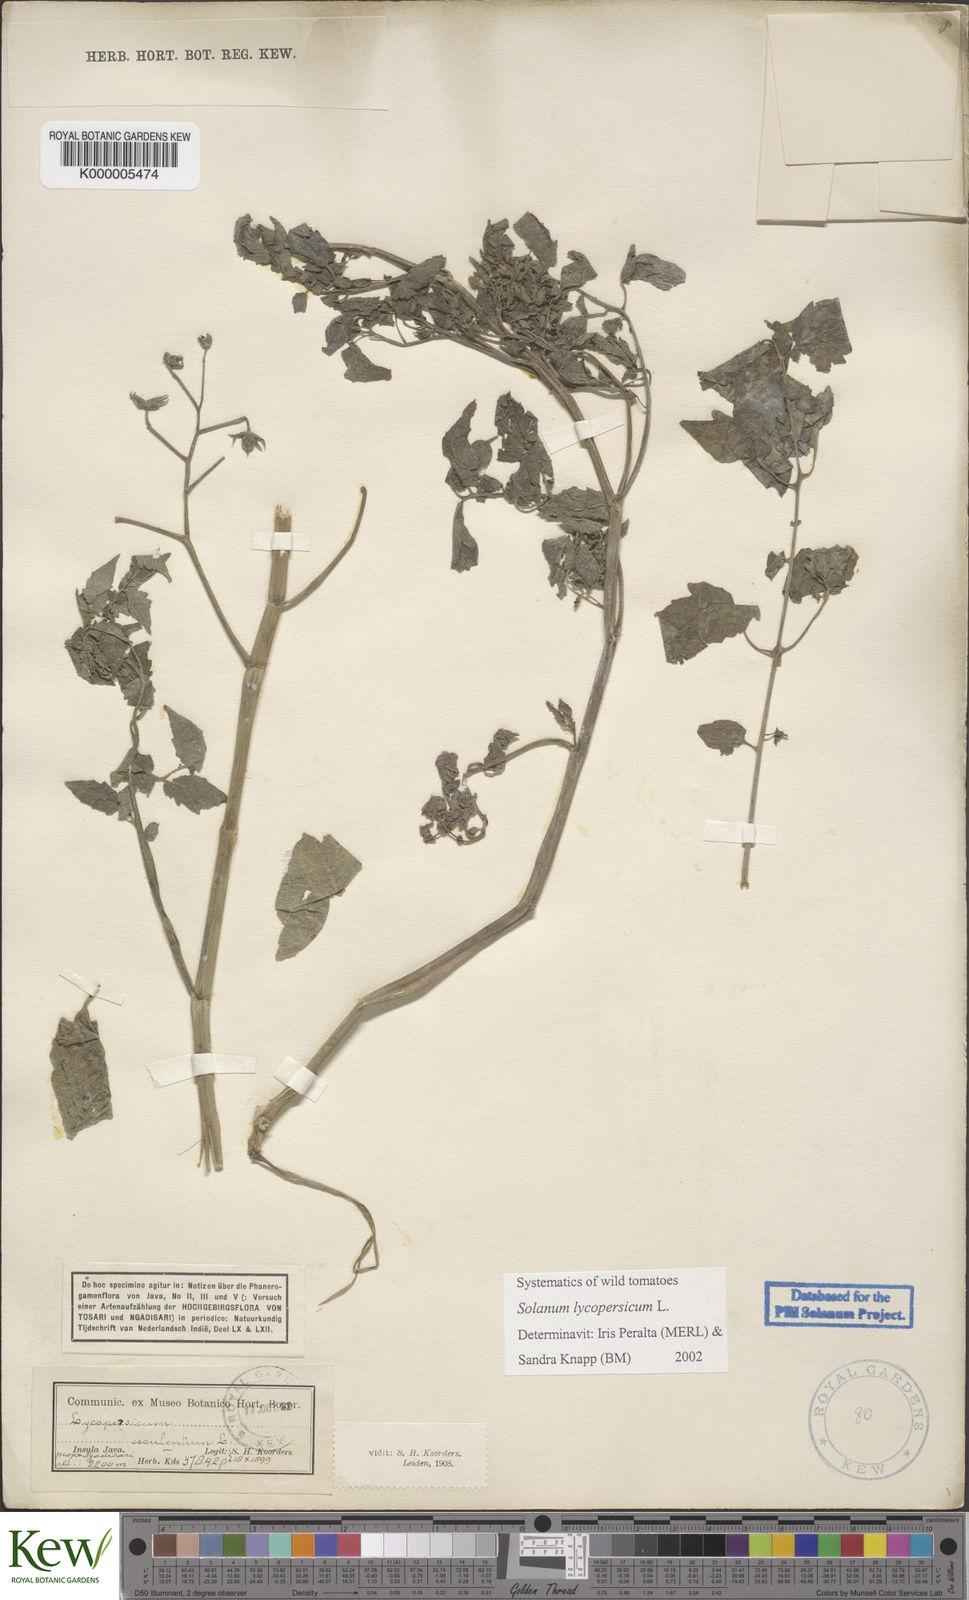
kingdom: Plantae
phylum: Tracheophyta
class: Magnoliopsida
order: Solanales
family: Solanaceae
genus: Solanum
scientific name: Solanum lycopersicum
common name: Garden tomato
